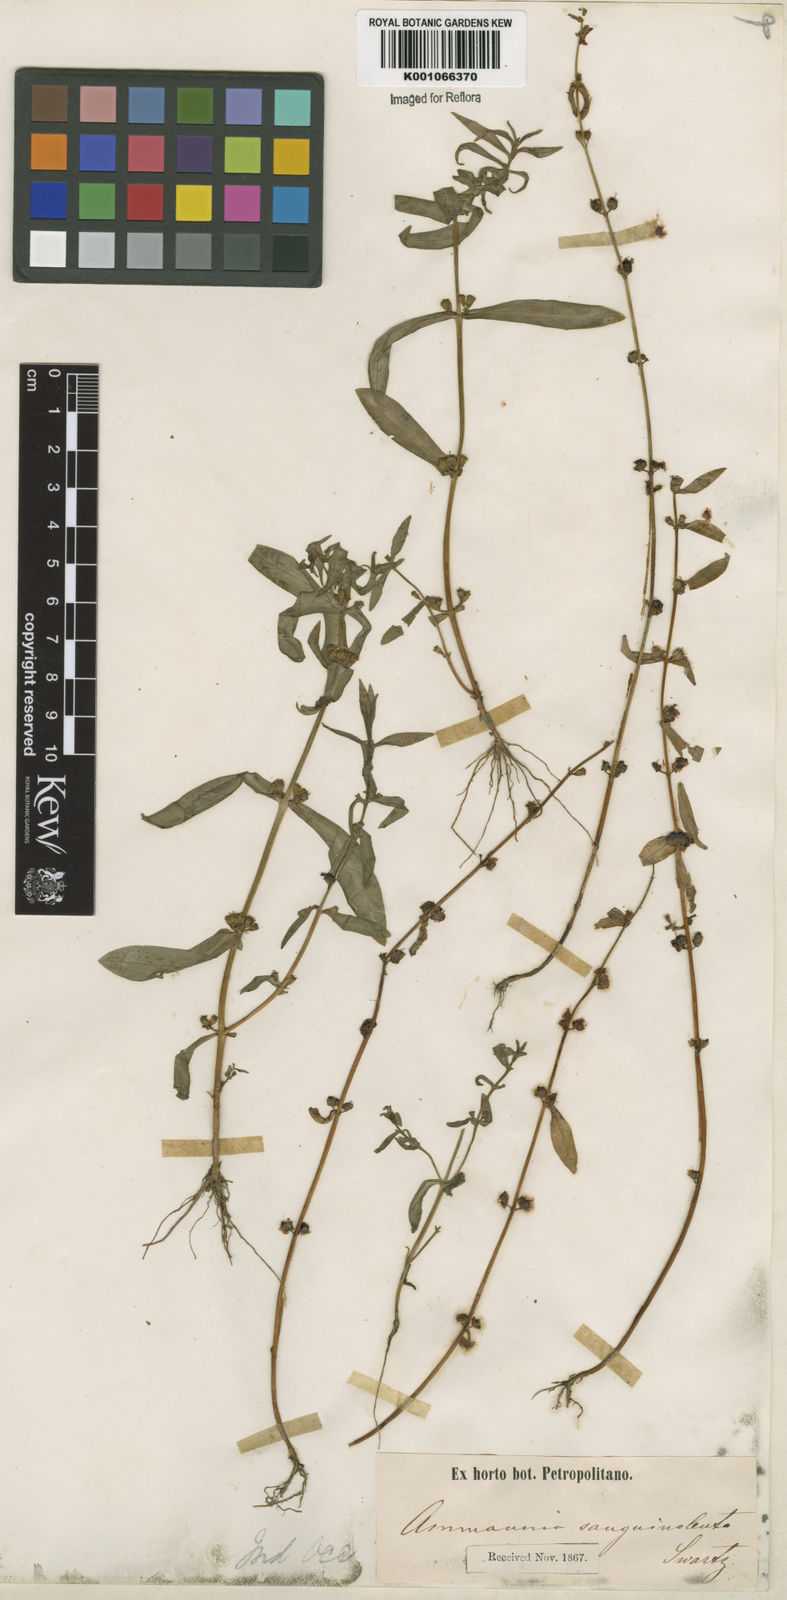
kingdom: Plantae
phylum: Tracheophyta
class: Magnoliopsida
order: Myrtales
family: Lythraceae
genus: Ammannia
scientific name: Ammannia coccinea
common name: Valley redstem
